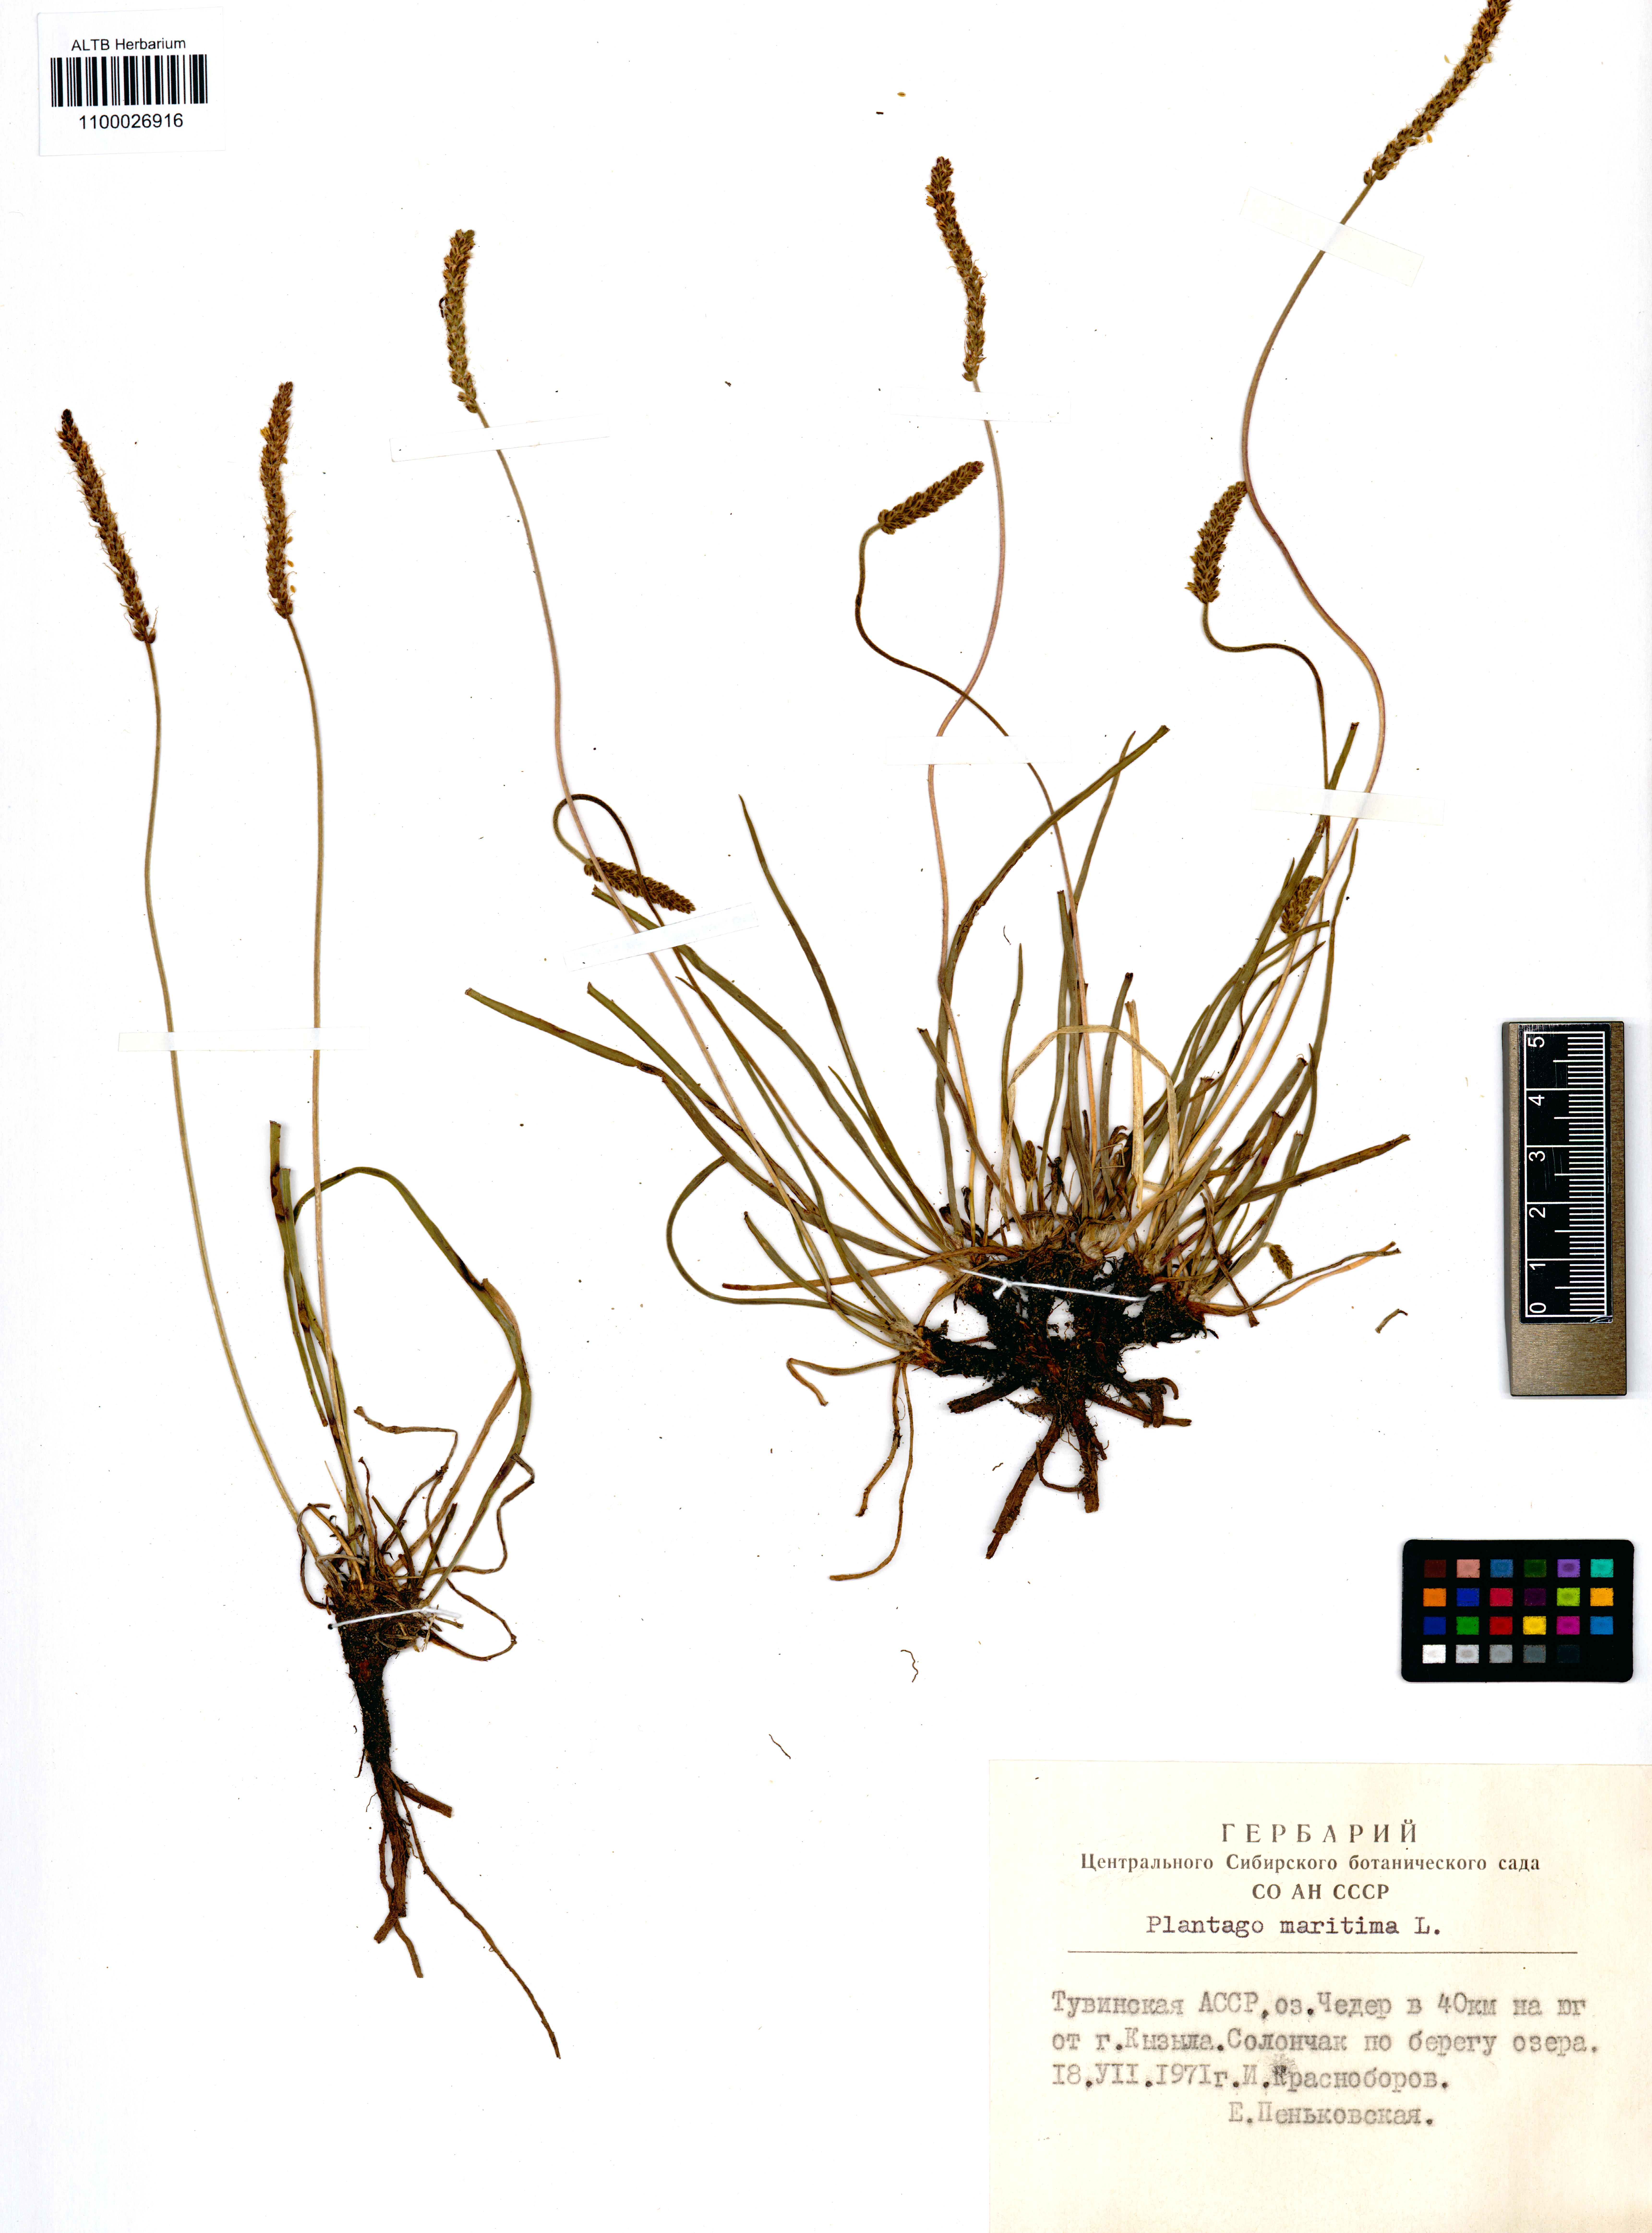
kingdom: Plantae
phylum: Tracheophyta
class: Magnoliopsida
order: Lamiales
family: Plantaginaceae
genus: Plantago
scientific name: Plantago maritima
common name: Sea plantain
